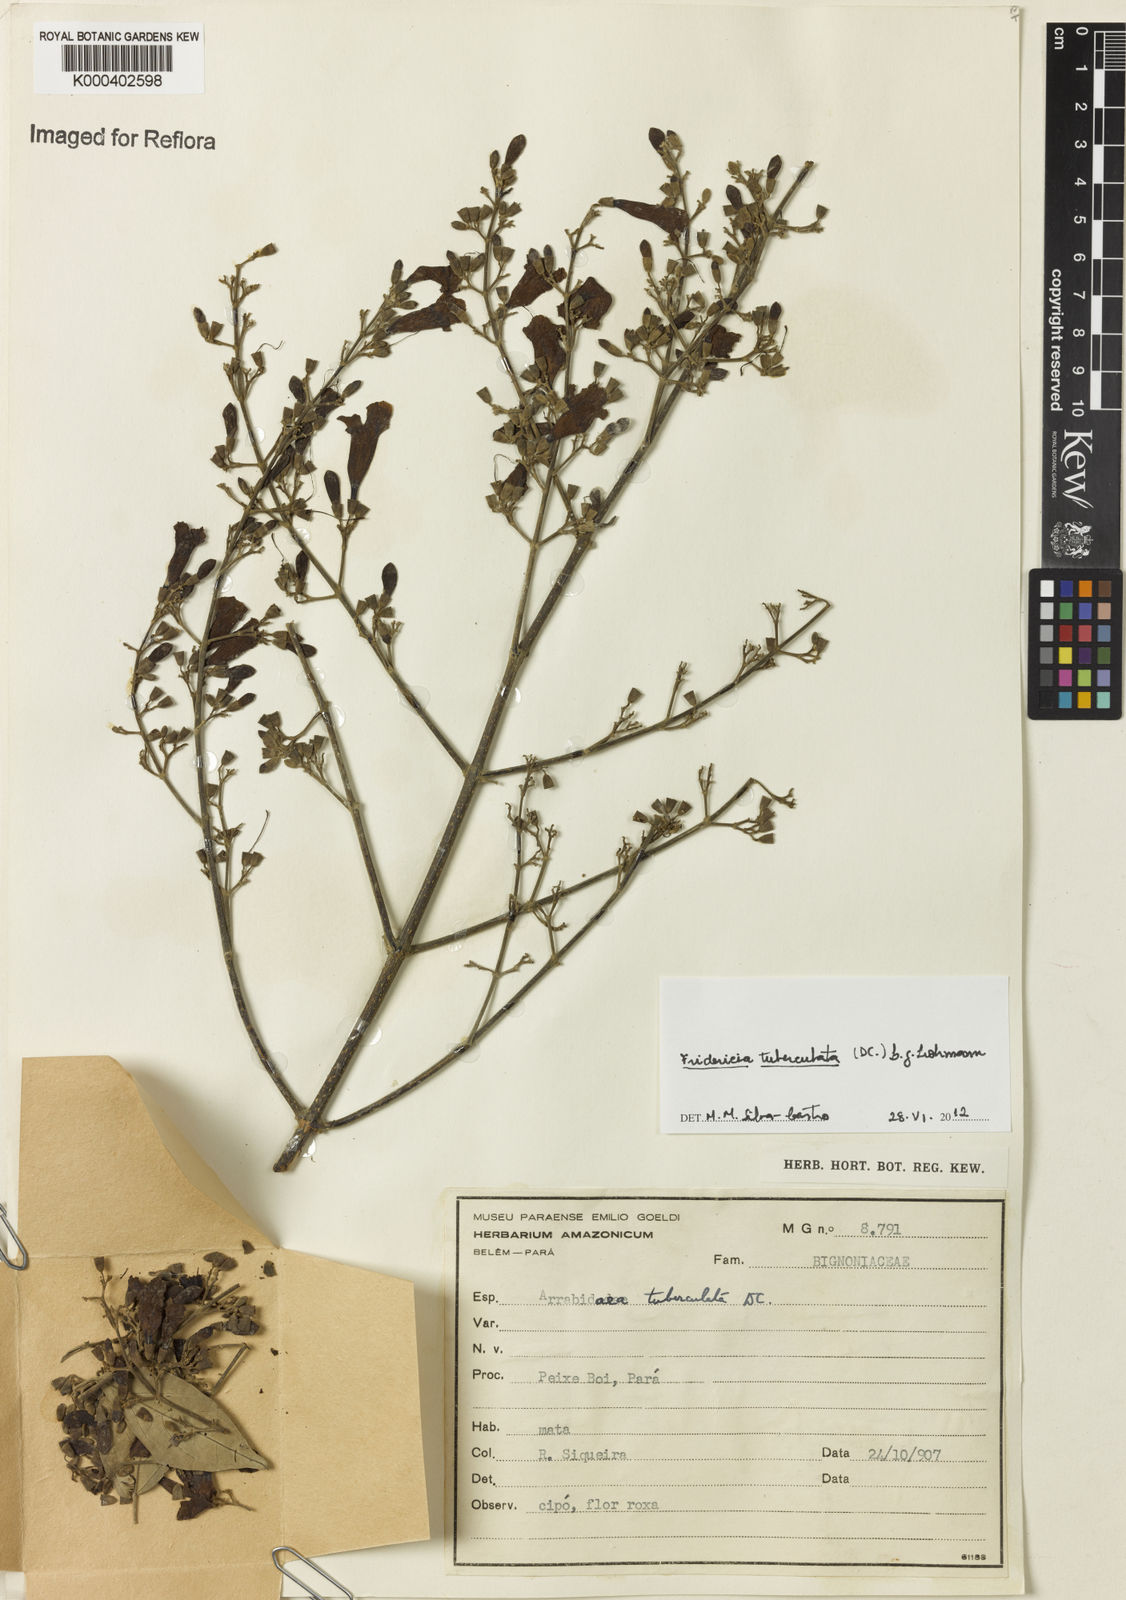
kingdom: Plantae
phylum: Tracheophyta
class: Magnoliopsida
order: Lamiales
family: Bignoniaceae
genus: Fridericia
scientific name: Fridericia tuberculata
